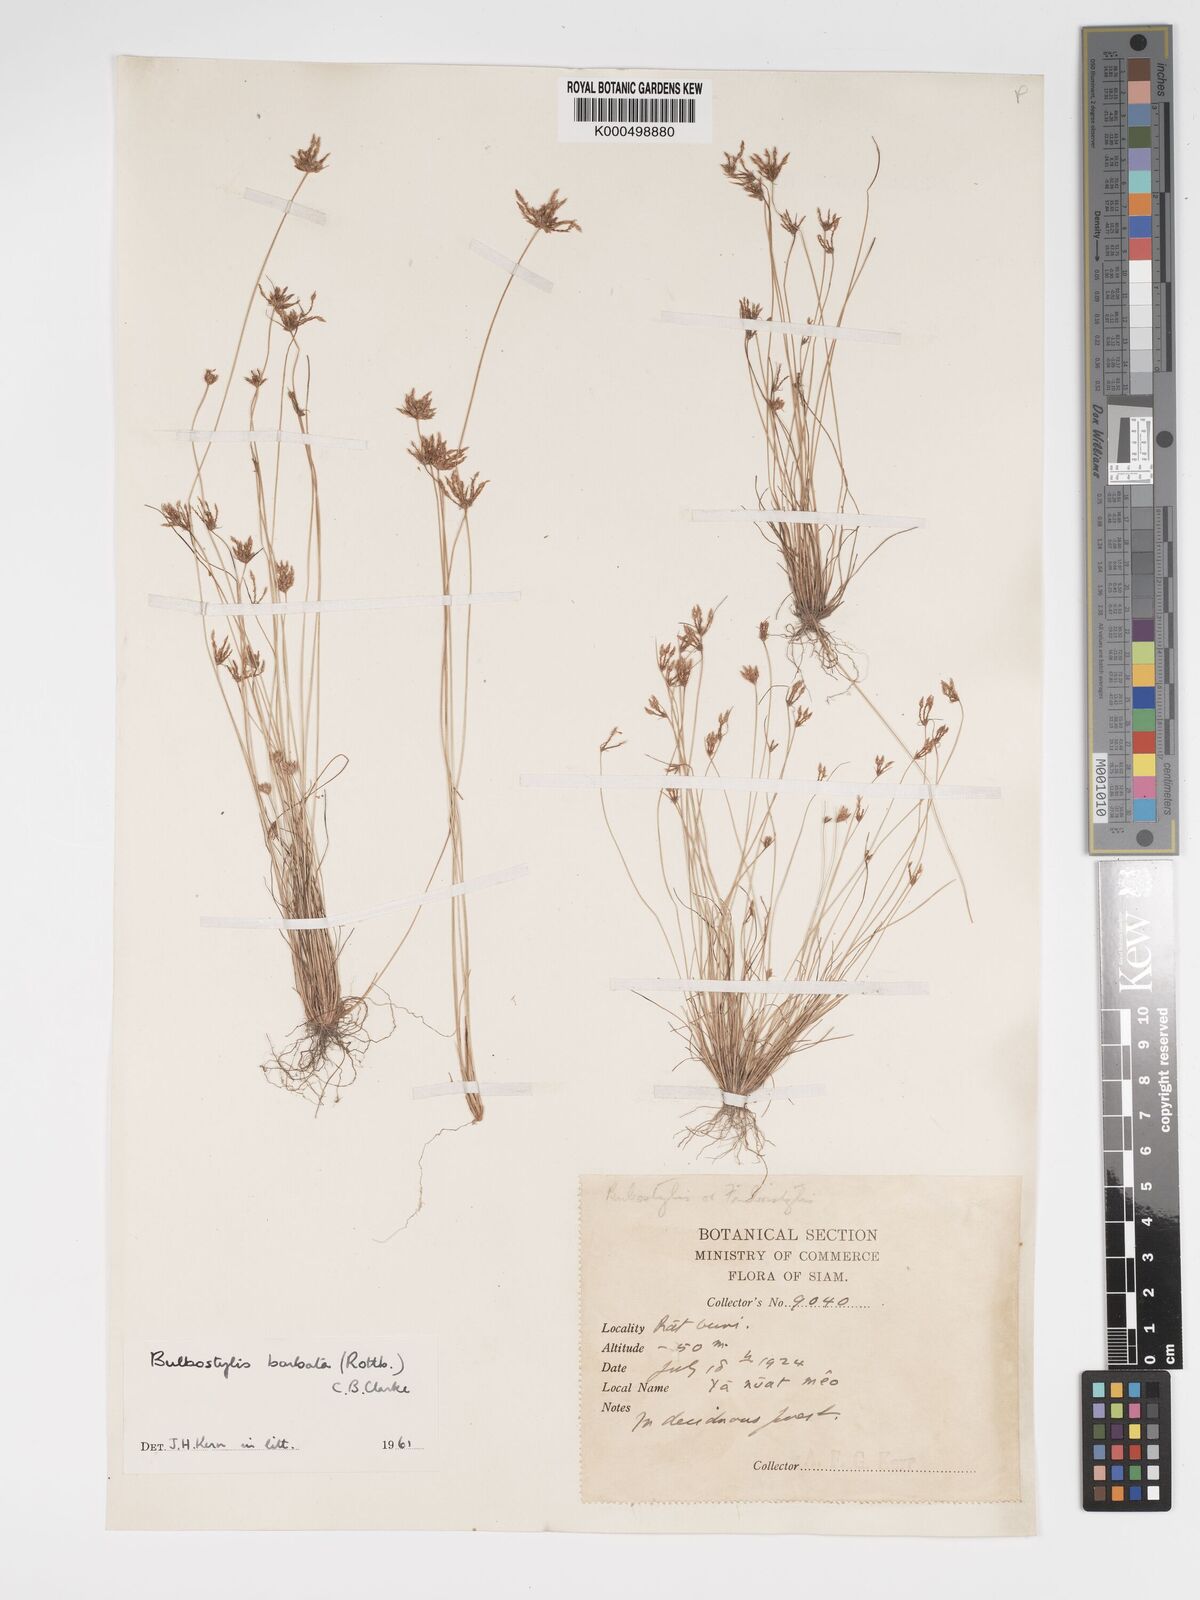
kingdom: Plantae
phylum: Tracheophyta
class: Liliopsida
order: Poales
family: Cyperaceae
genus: Bulbostylis
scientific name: Bulbostylis barbata
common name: Watergrass
